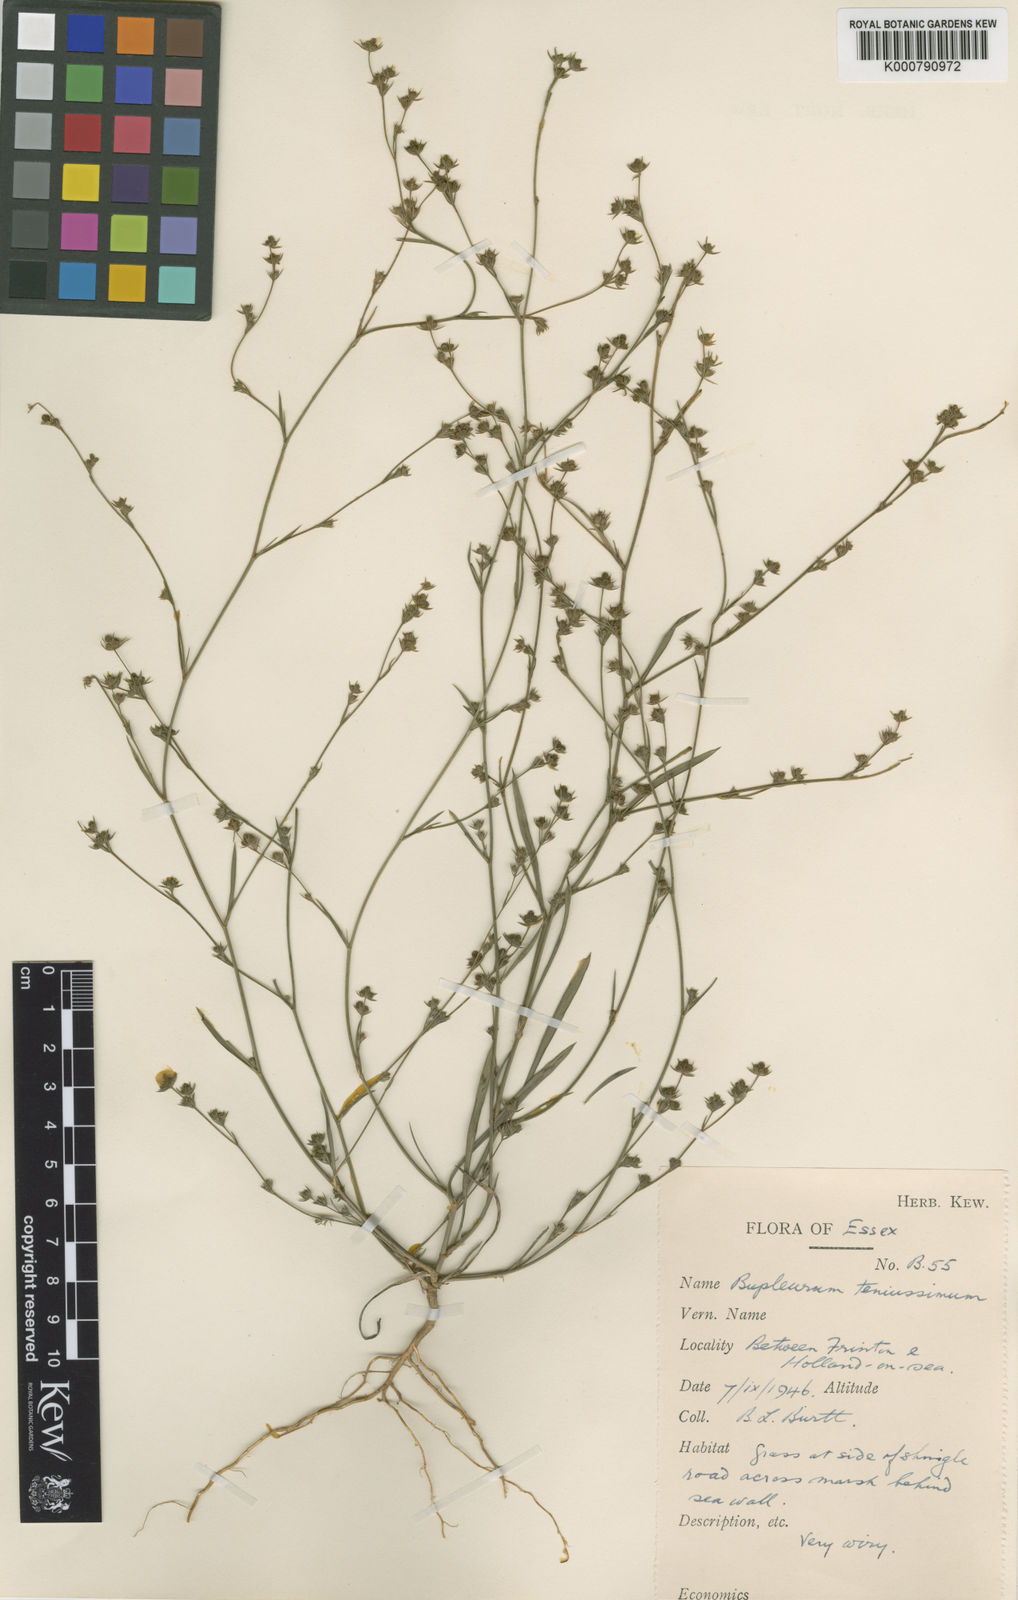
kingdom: Plantae
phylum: Tracheophyta
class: Magnoliopsida
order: Apiales
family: Apiaceae
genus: Bupleurum
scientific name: Bupleurum tenuissimum
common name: Slender hare's-ear
